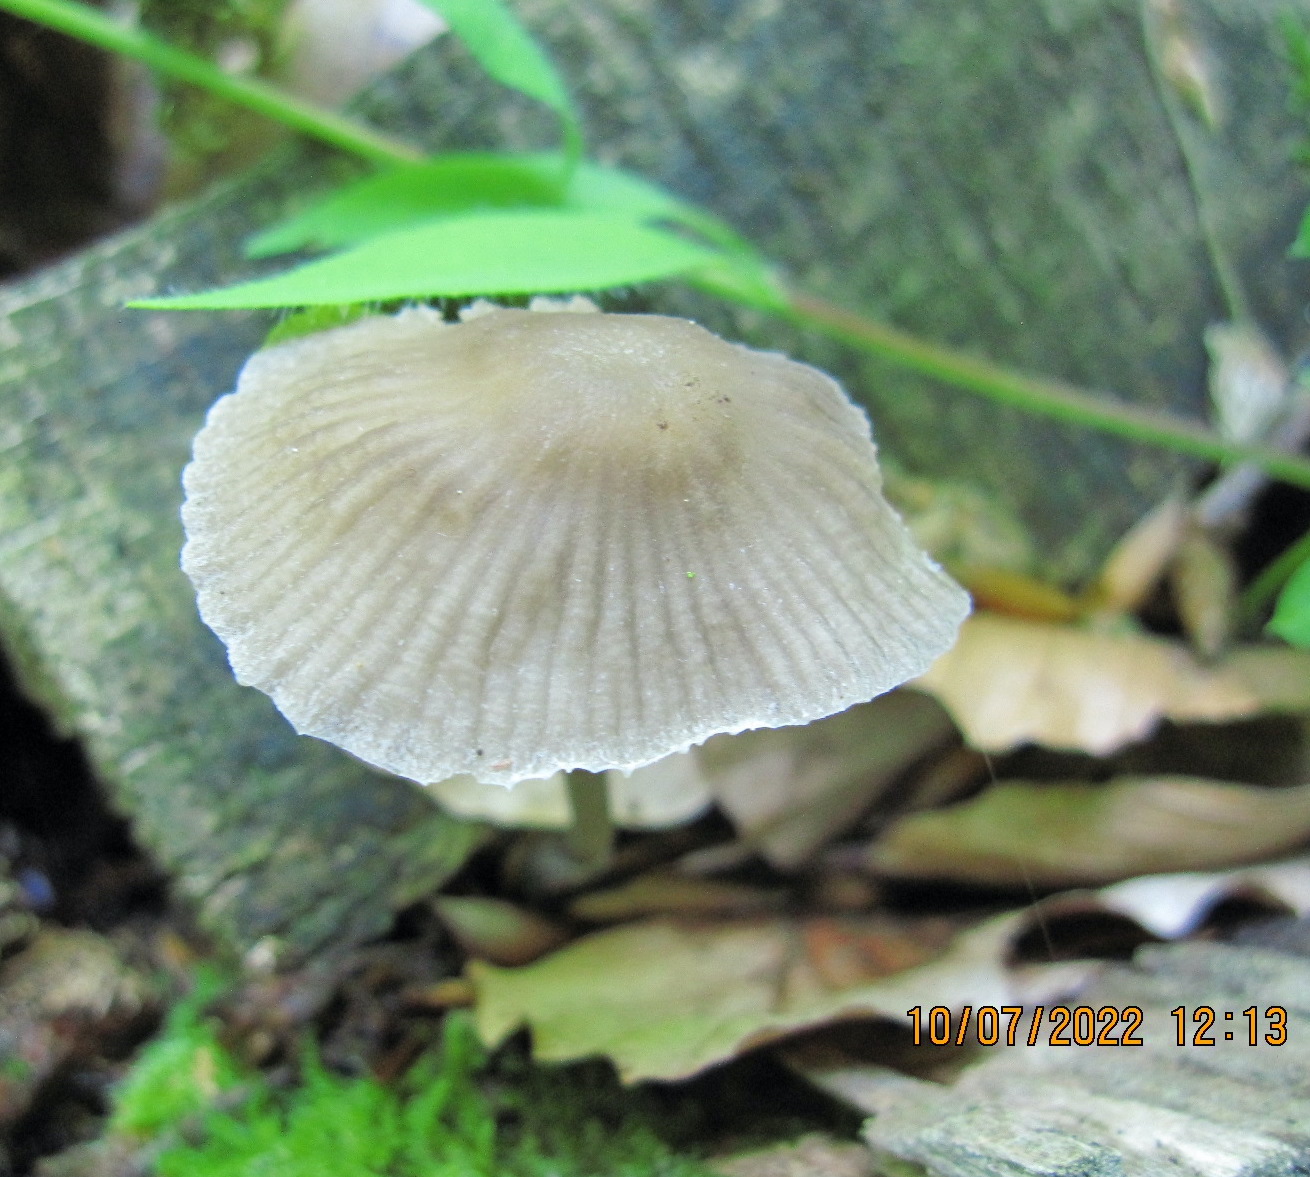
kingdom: Fungi
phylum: Basidiomycota
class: Agaricomycetes
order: Agaricales
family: Mycenaceae
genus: Mycena
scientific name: Mycena abramsii
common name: sommer-huesvamp
